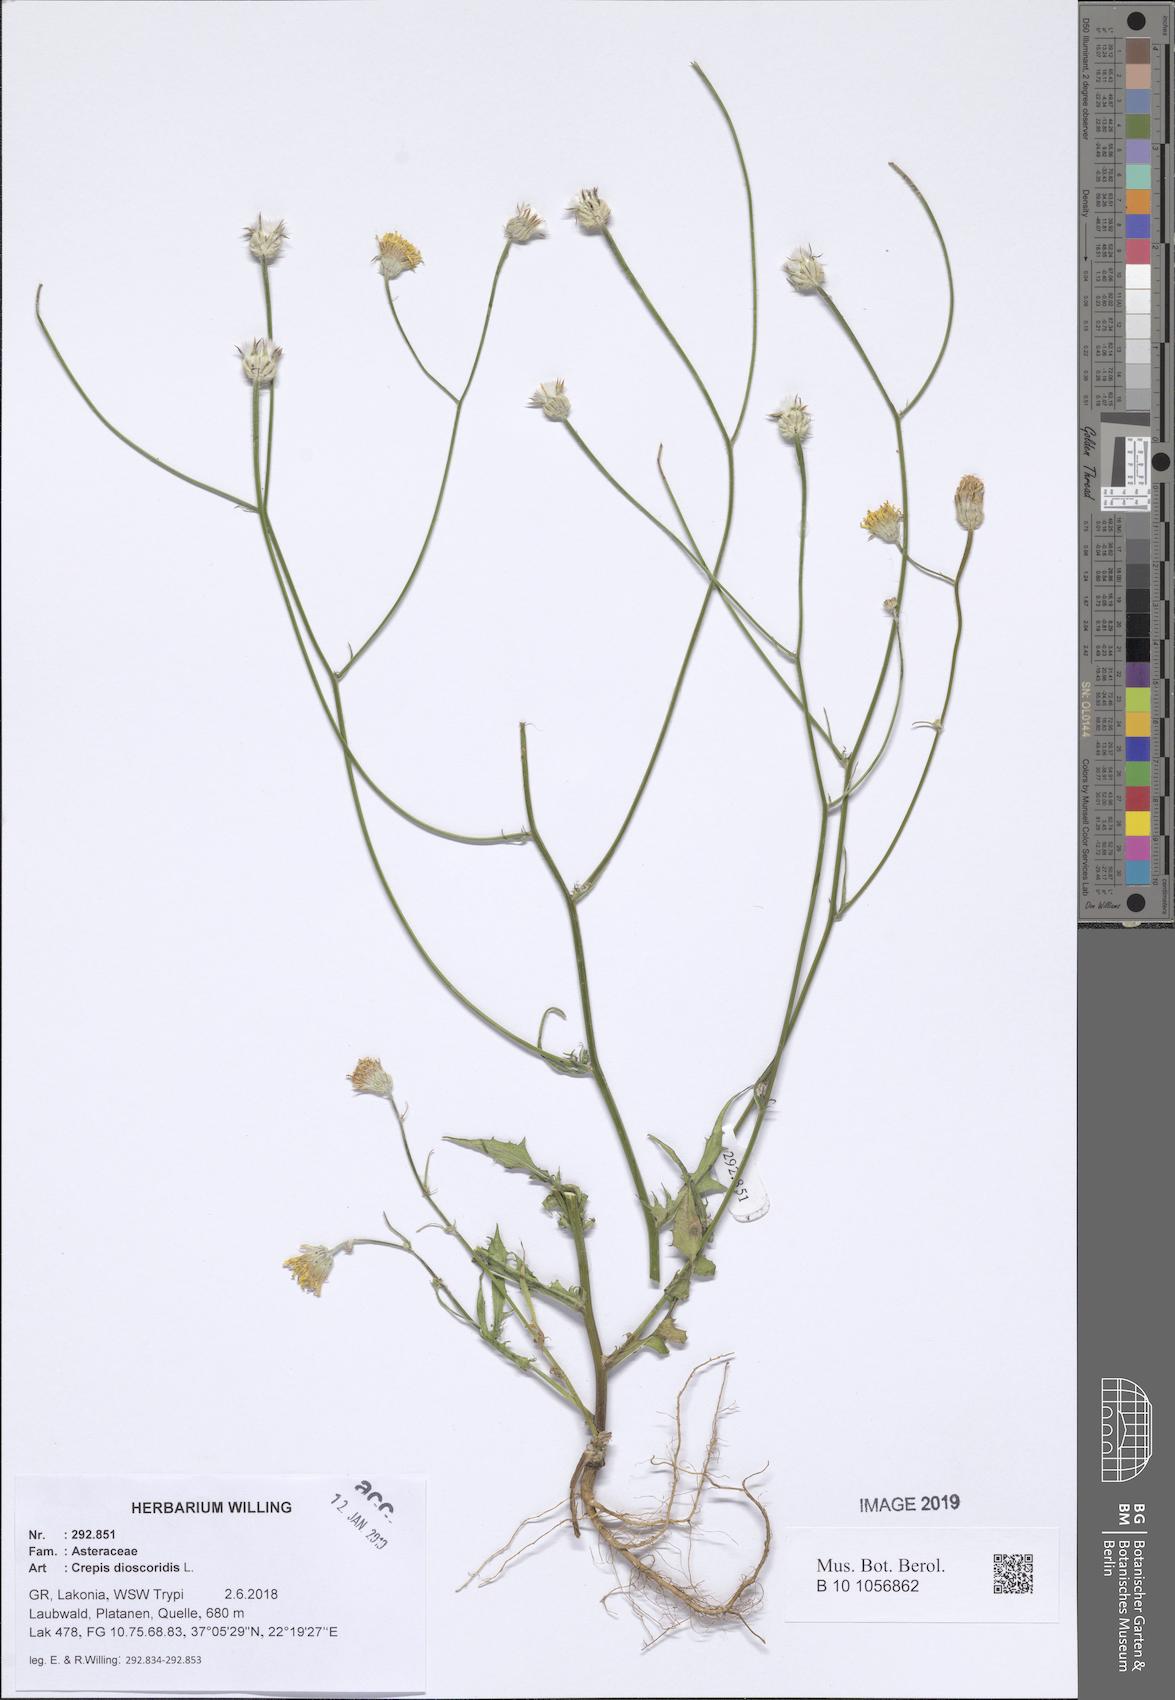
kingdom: Plantae
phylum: Tracheophyta
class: Magnoliopsida
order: Asterales
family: Asteraceae
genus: Crepis
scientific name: Crepis dioscoridis
